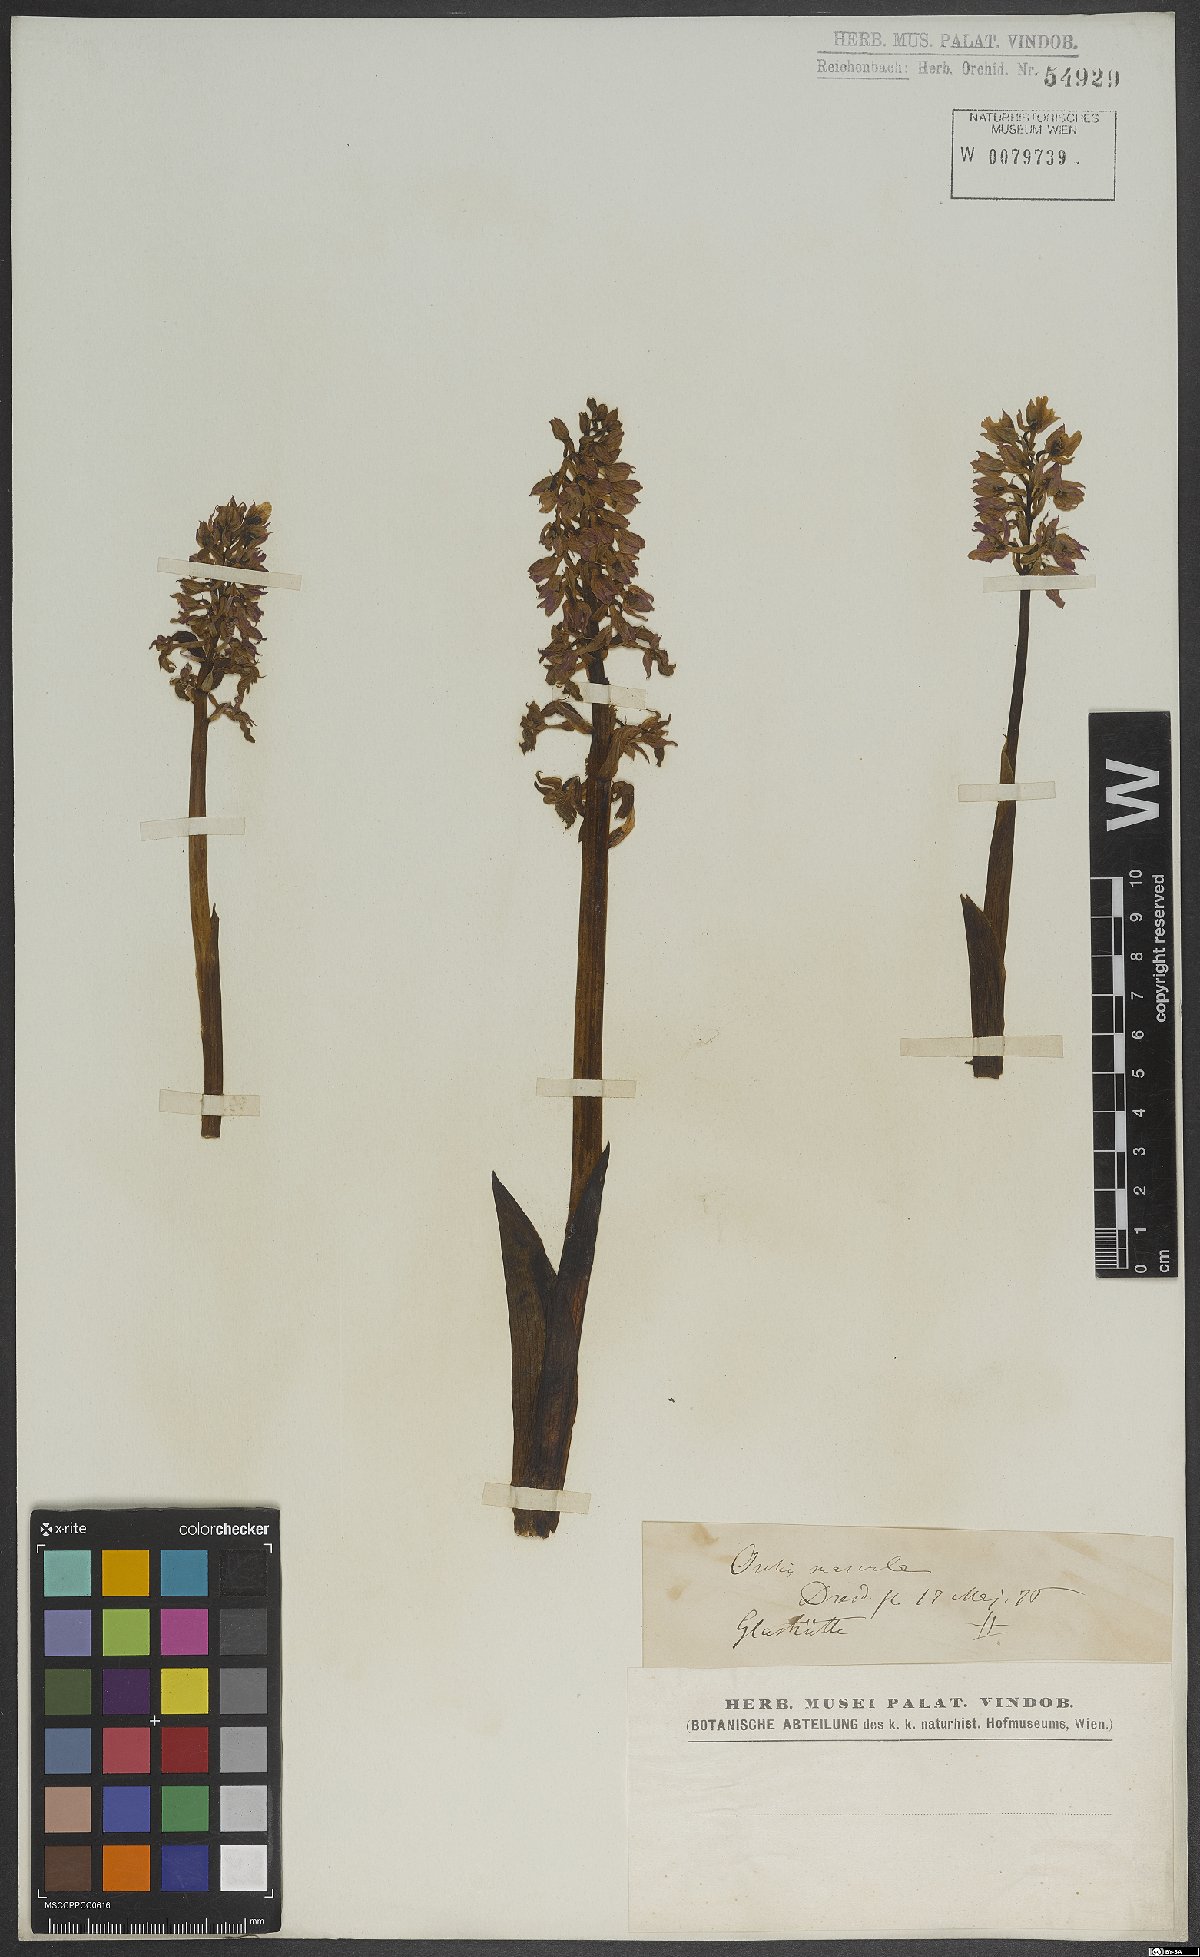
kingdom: Plantae
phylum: Tracheophyta
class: Liliopsida
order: Asparagales
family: Orchidaceae
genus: Dactylorhiza
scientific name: Dactylorhiza maculata
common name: Heath spotted-orchid
